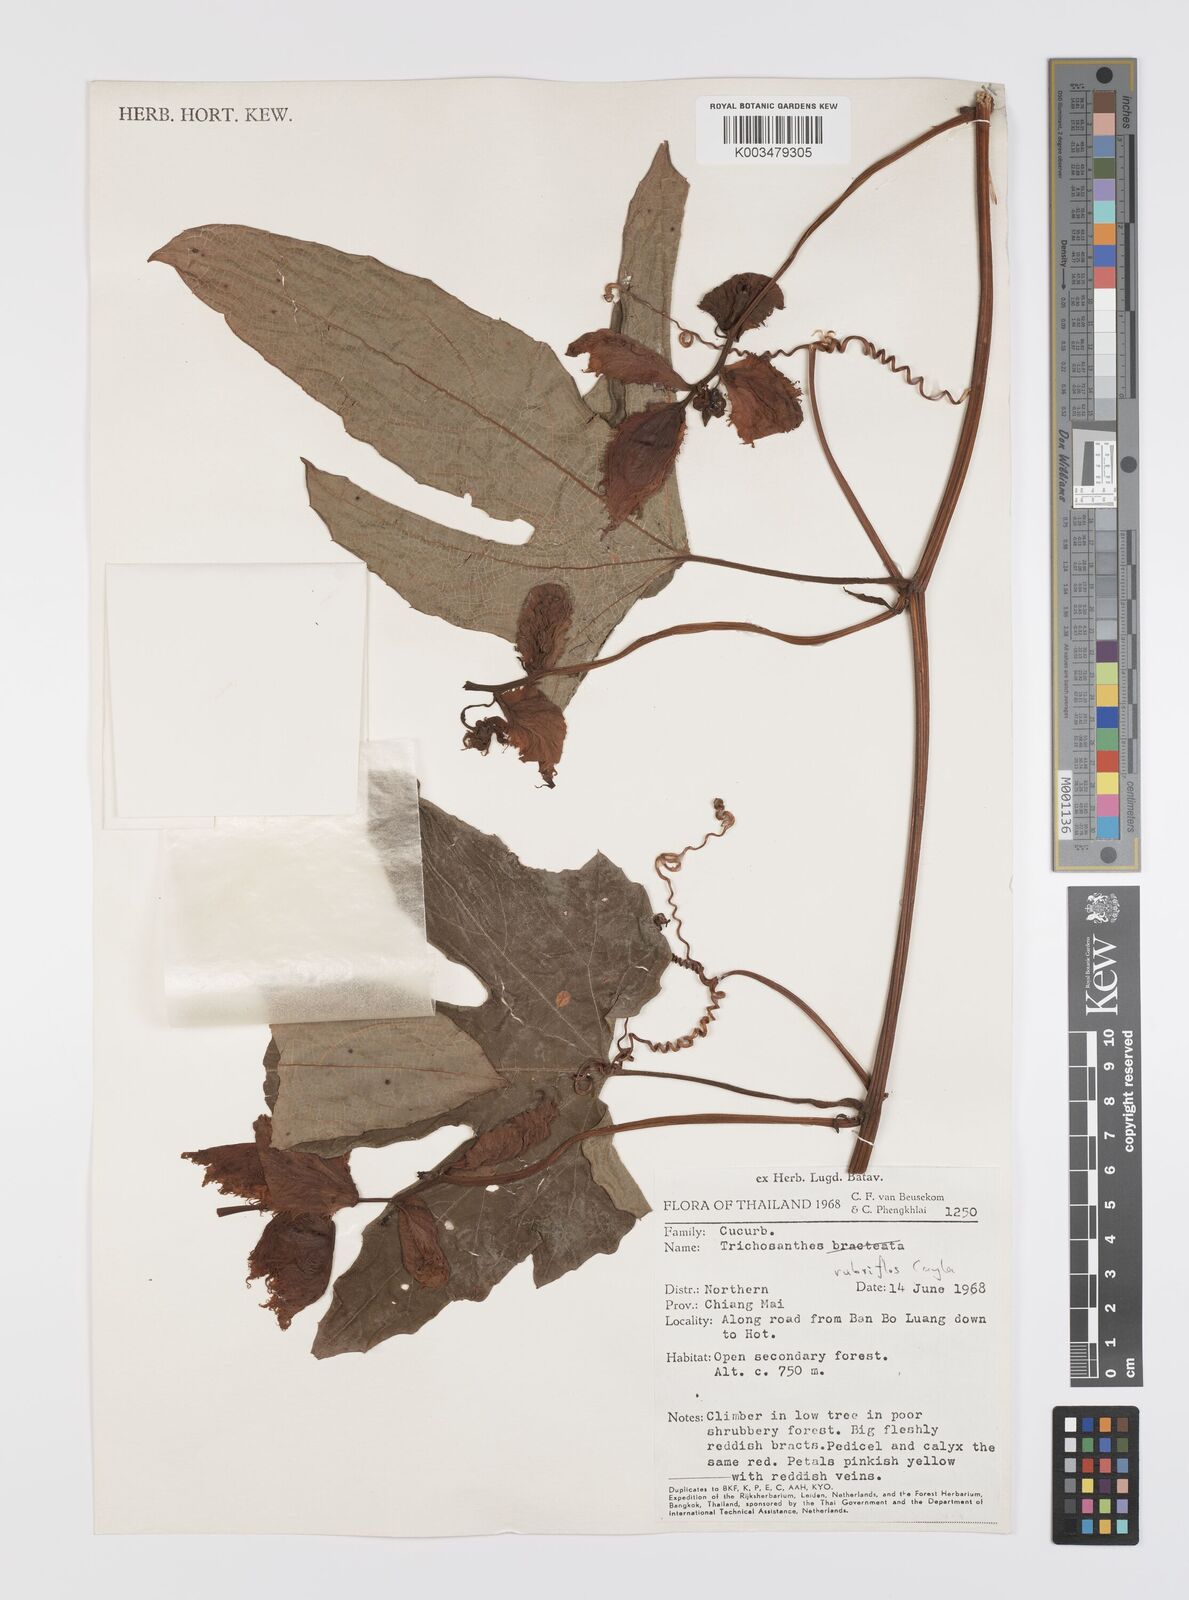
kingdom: Plantae
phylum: Tracheophyta
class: Magnoliopsida
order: Cucurbitales
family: Cucurbitaceae
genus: Trichosanthes
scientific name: Trichosanthes rubriflos
